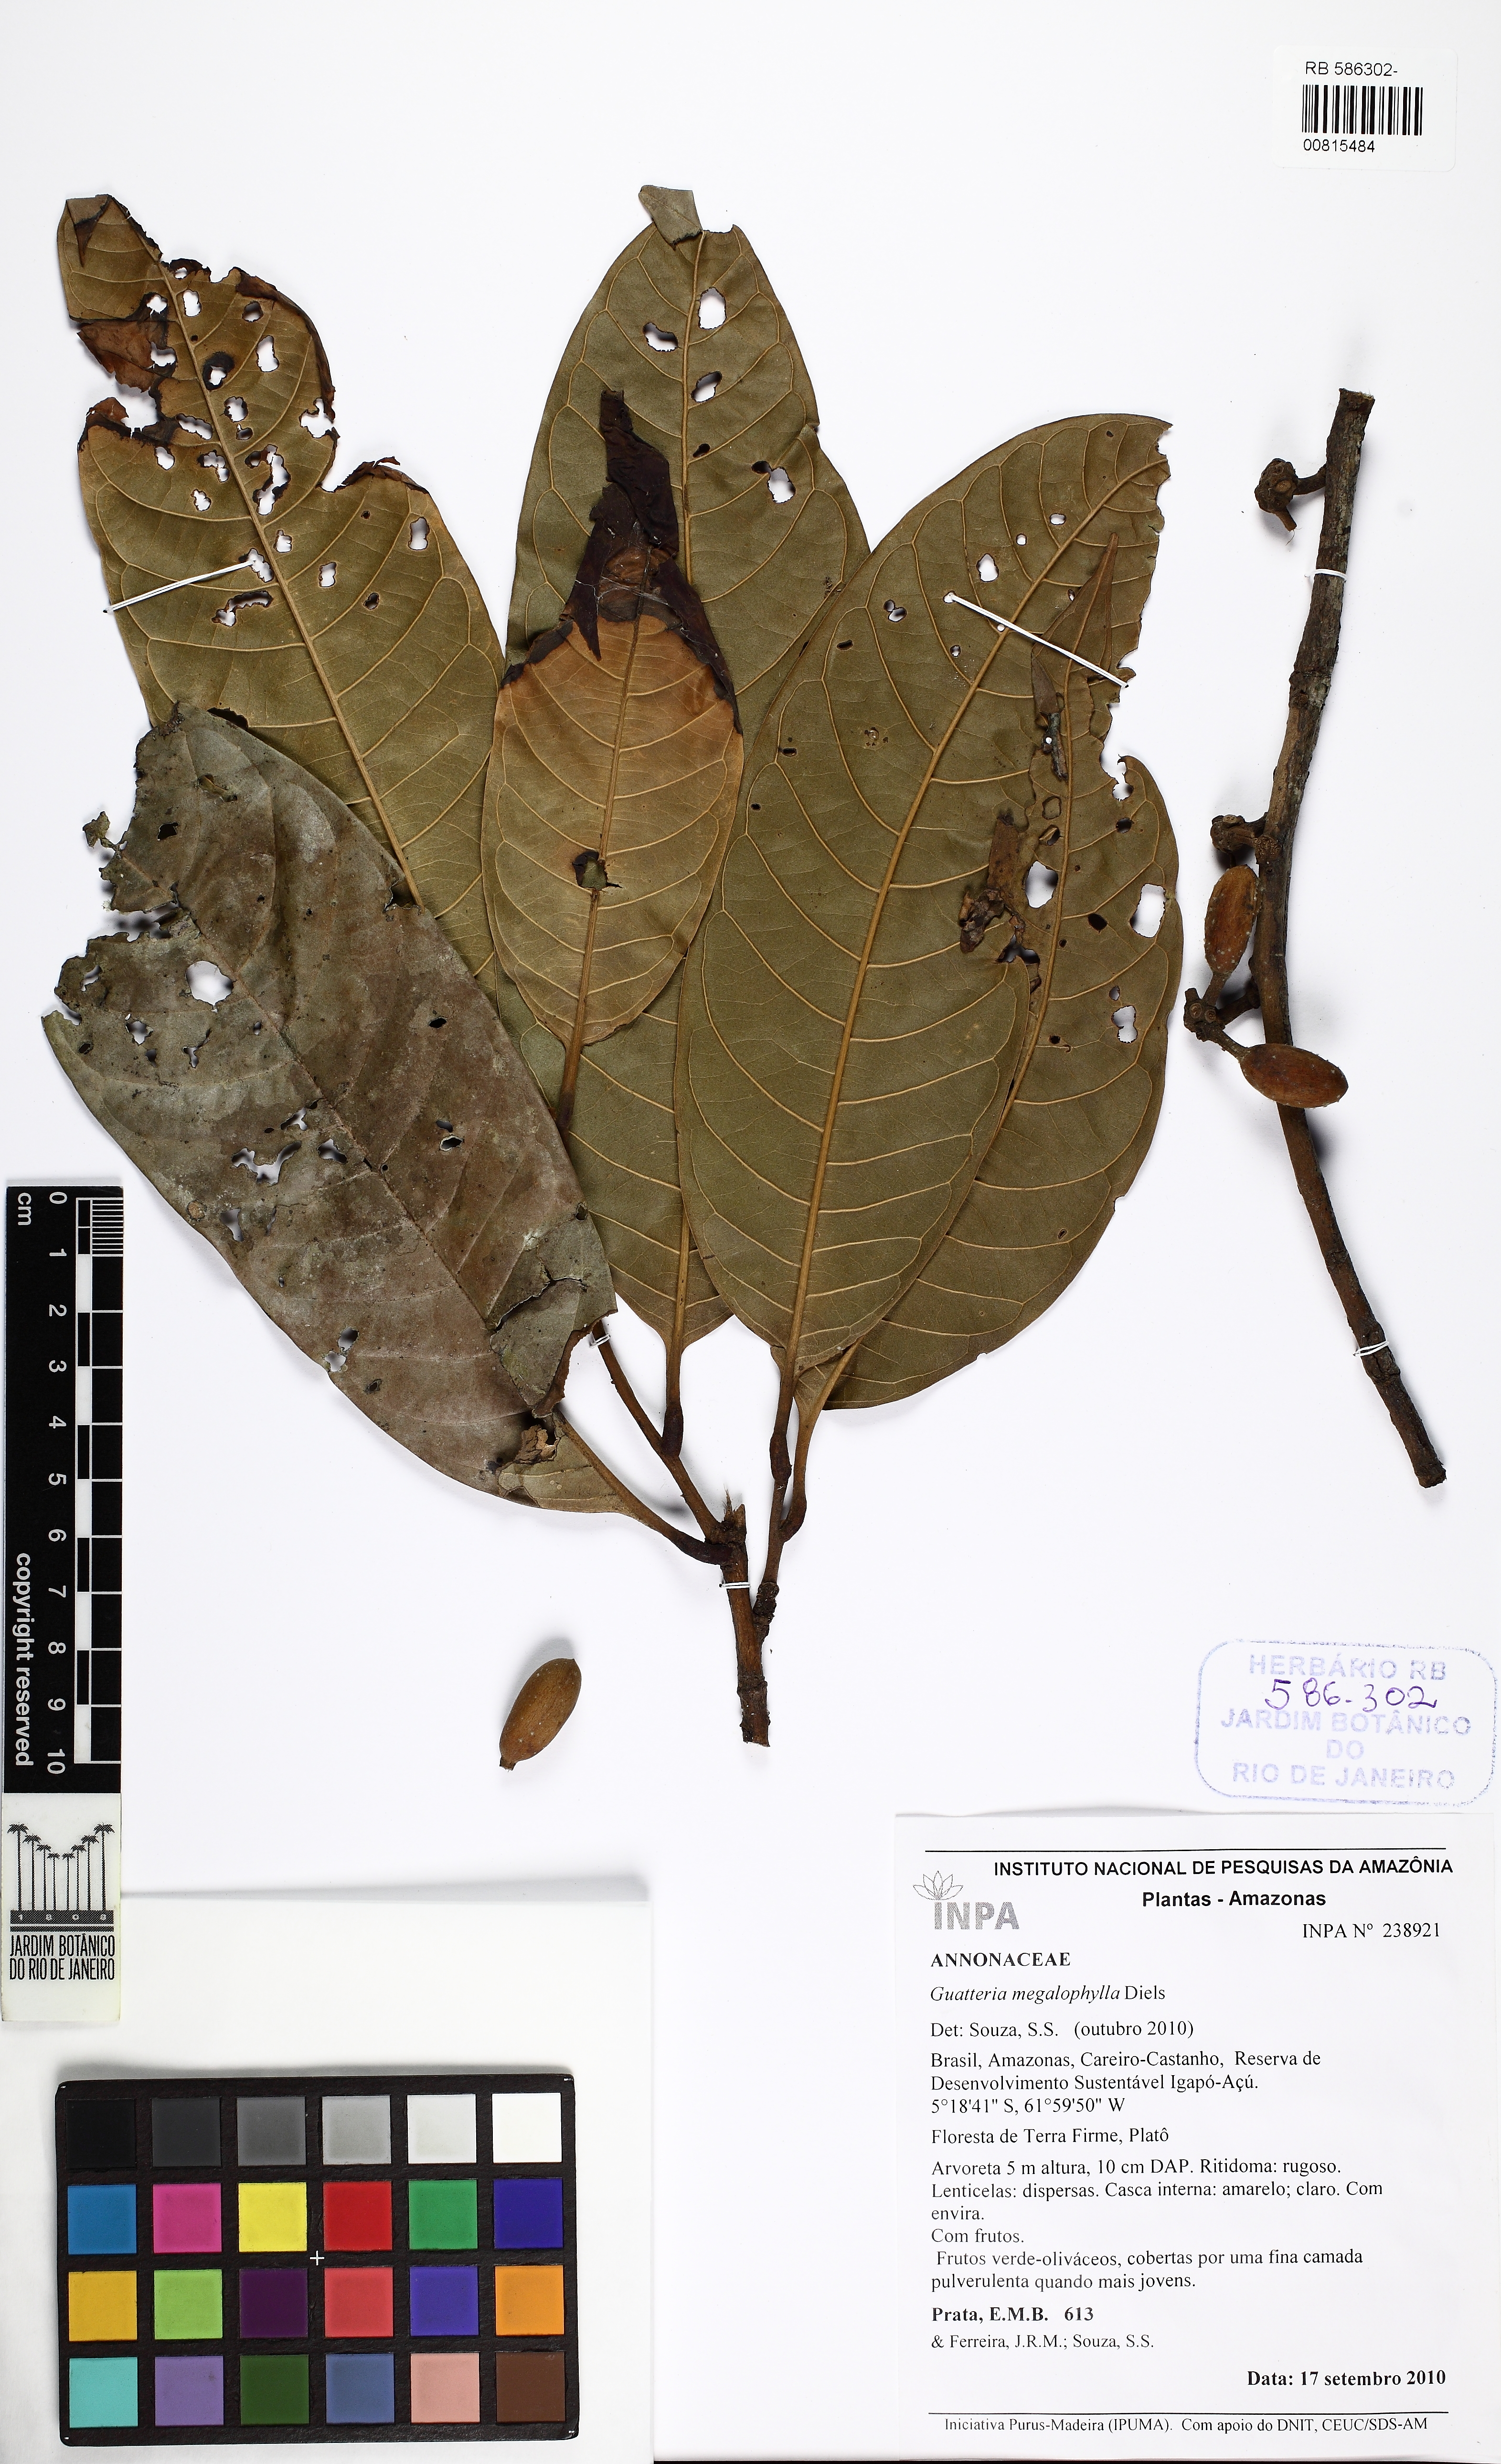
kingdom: Plantae
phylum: Tracheophyta
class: Magnoliopsida
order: Magnoliales
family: Annonaceae
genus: Guatteria
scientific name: Guatteria megalophylla
